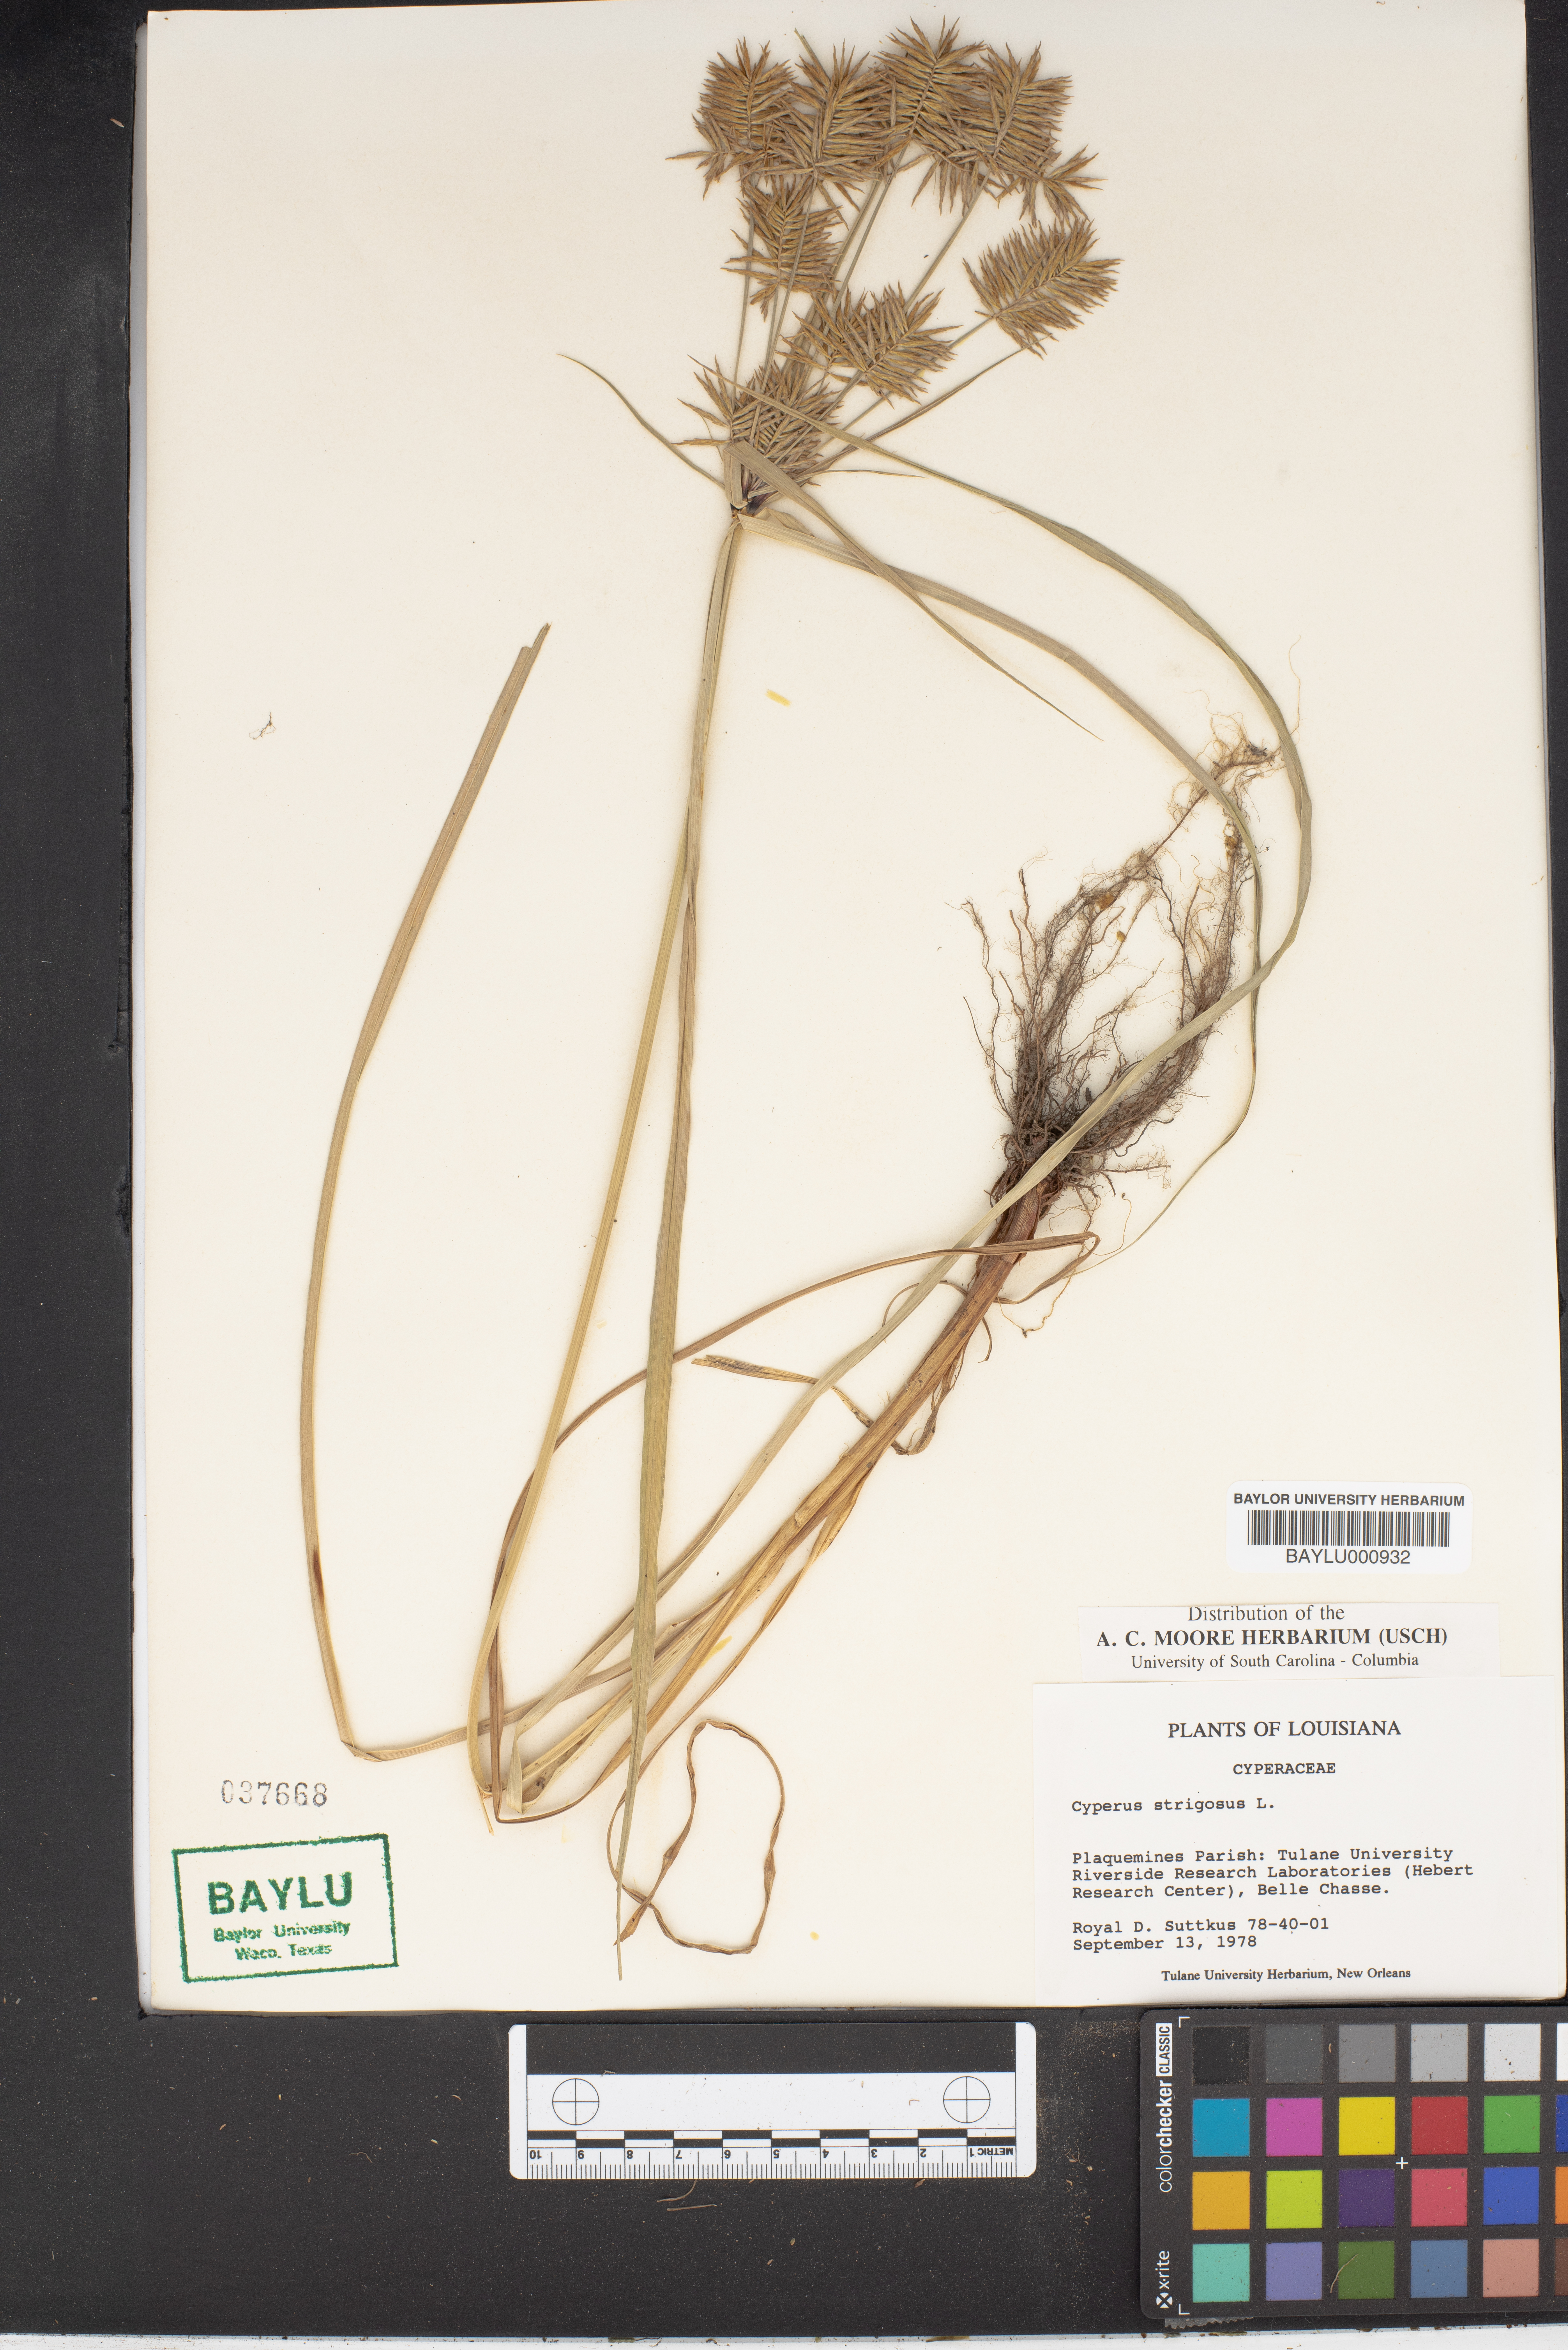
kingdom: Plantae
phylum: Tracheophyta
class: Liliopsida
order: Poales
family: Cyperaceae
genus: Cyperus
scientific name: Cyperus strigosus
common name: False nutsedge
